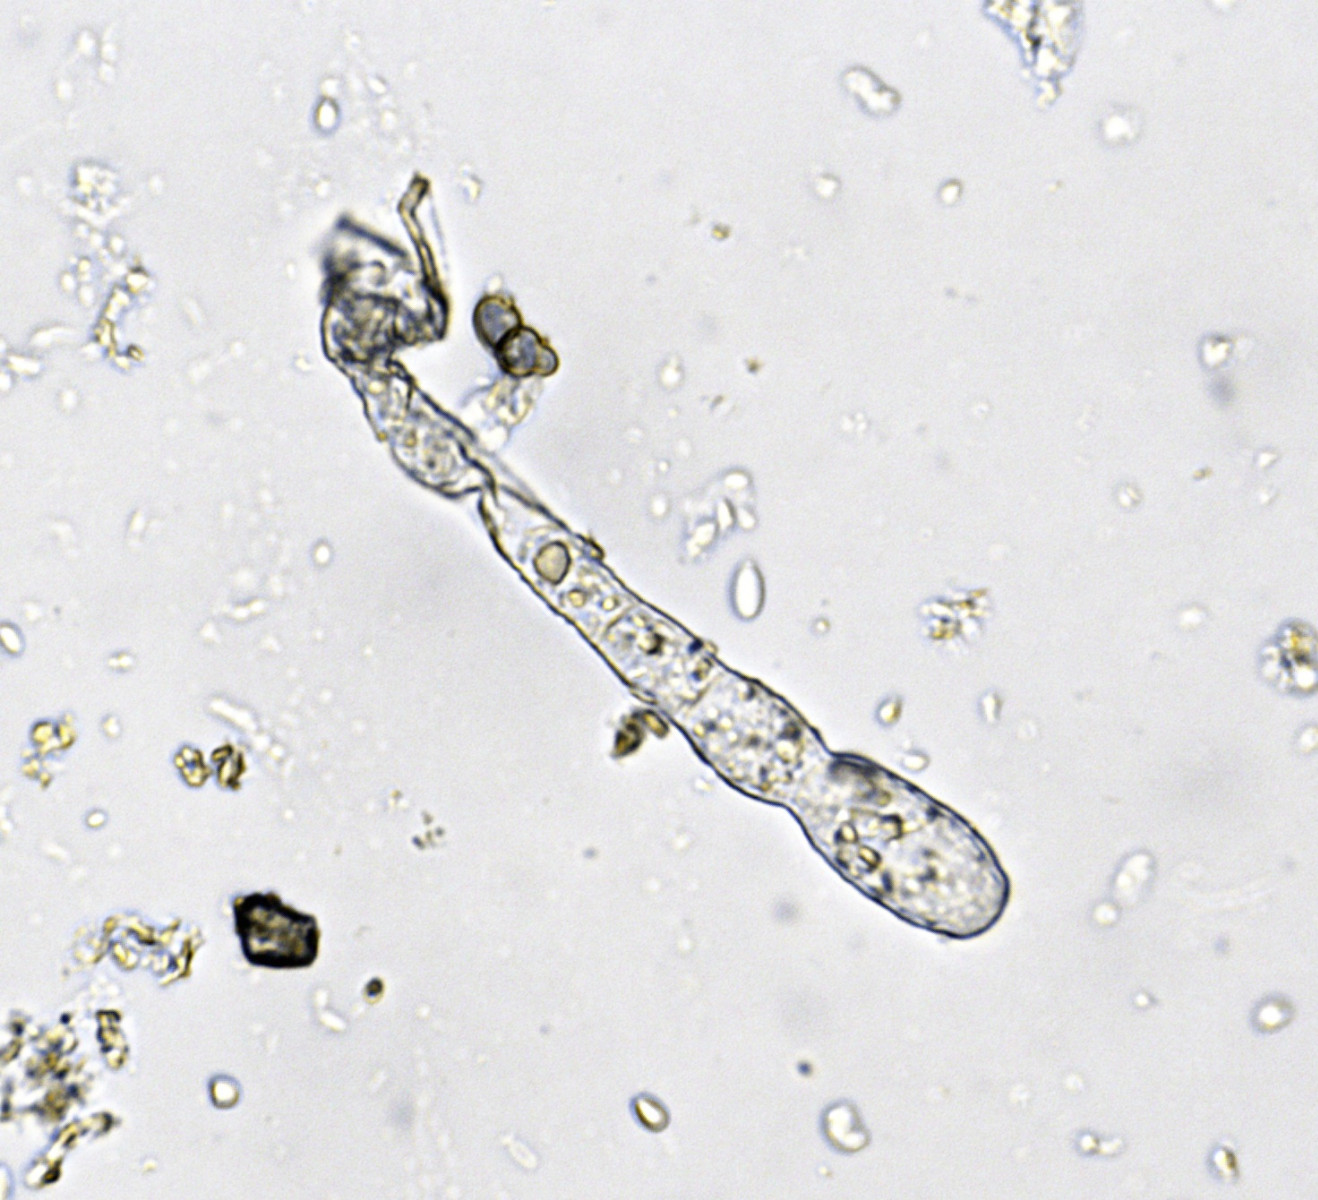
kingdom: Fungi
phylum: Ascomycota
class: Leotiomycetes
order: Helotiales
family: Erysiphaceae
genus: Sawadaea
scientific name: Sawadaea bicornis
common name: Maple mildew
